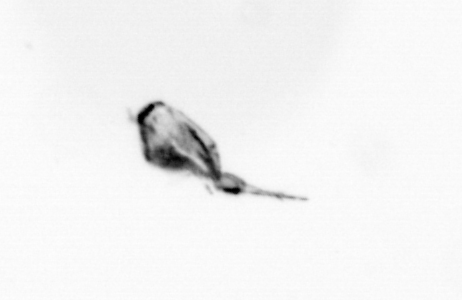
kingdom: Animalia
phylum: Arthropoda
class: Copepoda
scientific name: Copepoda
